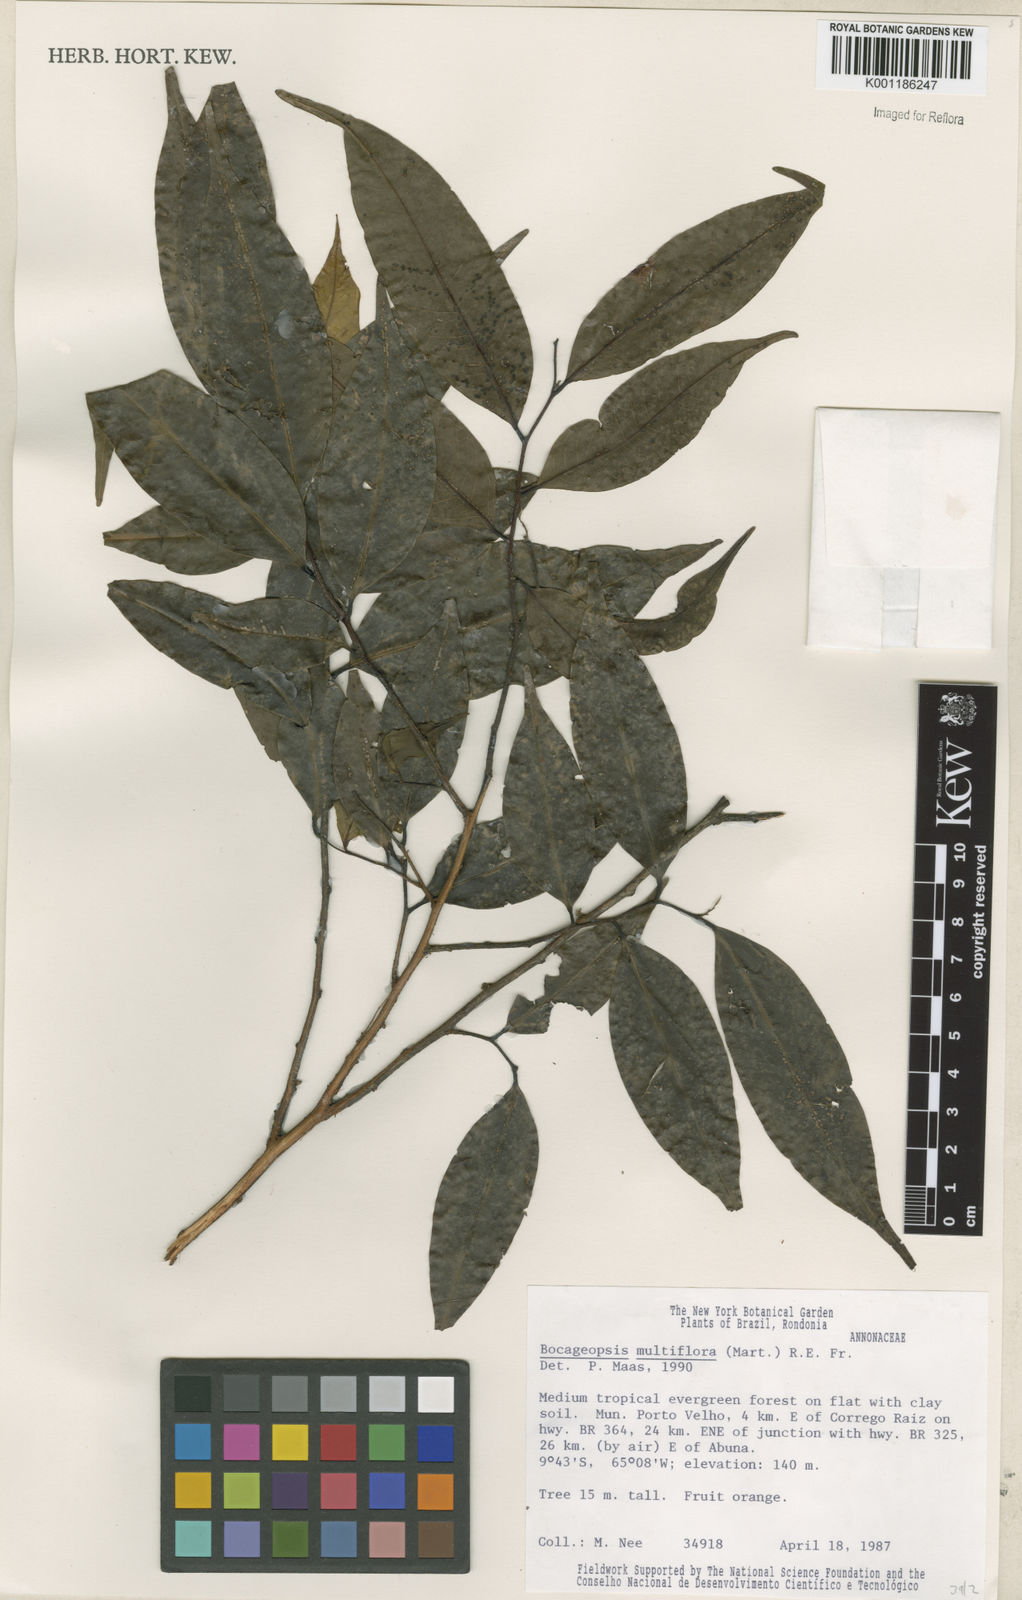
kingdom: Plantae
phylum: Tracheophyta
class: Magnoliopsida
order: Magnoliales
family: Annonaceae
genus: Bocageopsis
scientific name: Bocageopsis multiflora
